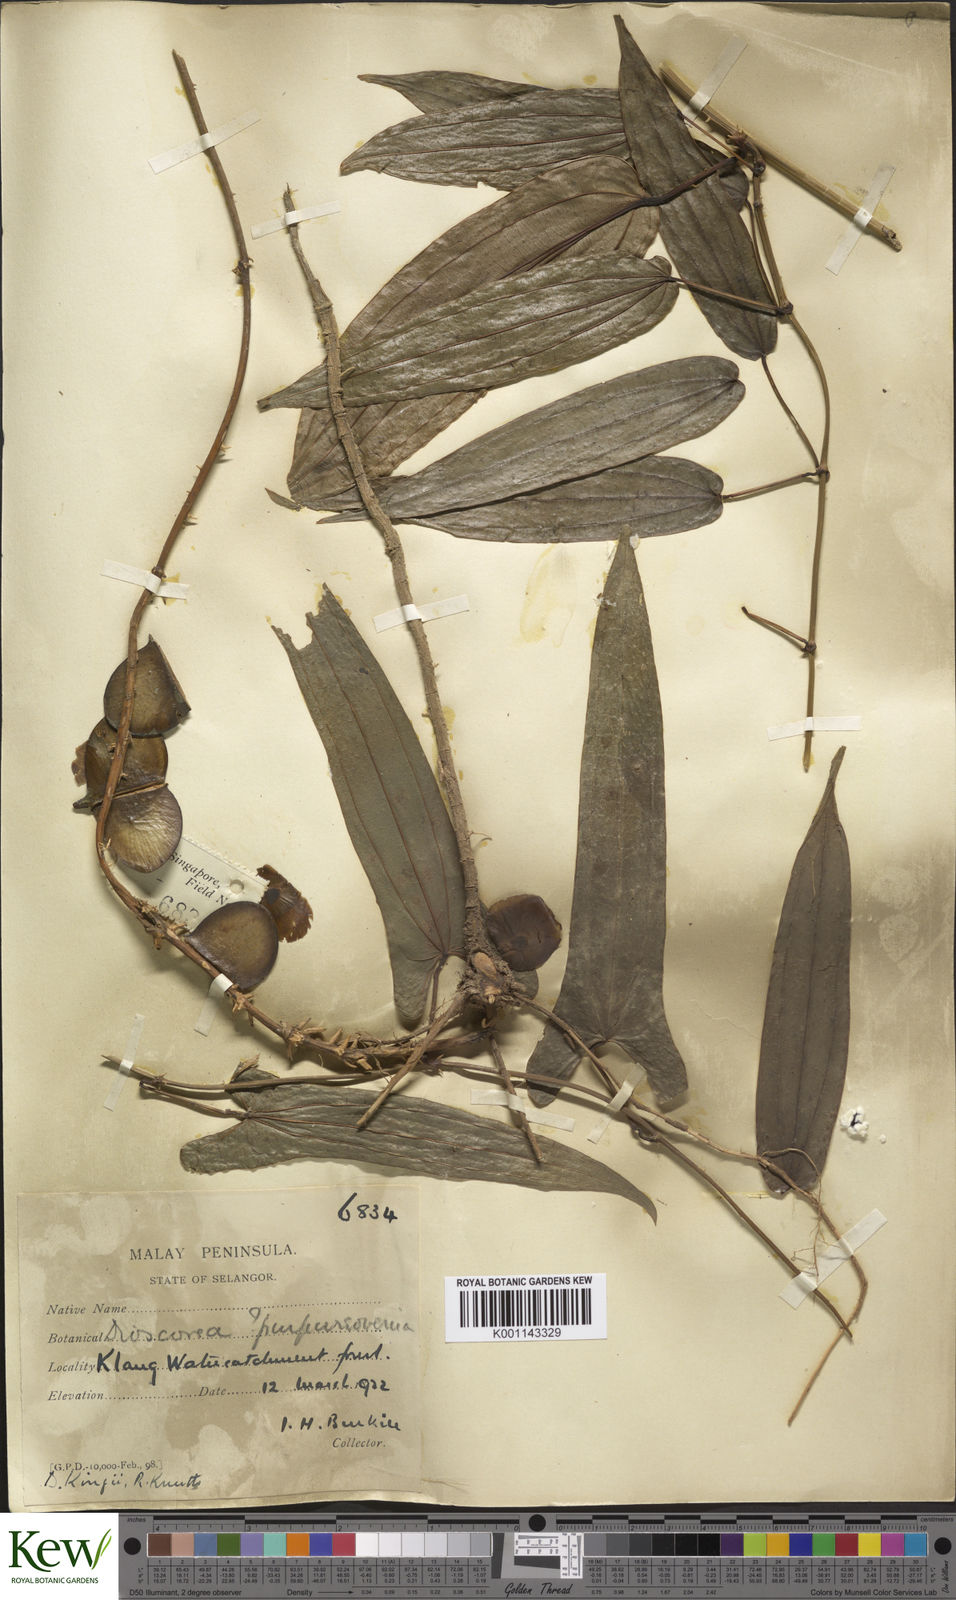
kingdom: Plantae
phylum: Tracheophyta
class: Liliopsida
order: Dioscoreales
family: Dioscoreaceae
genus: Dioscorea
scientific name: Dioscorea kingii
